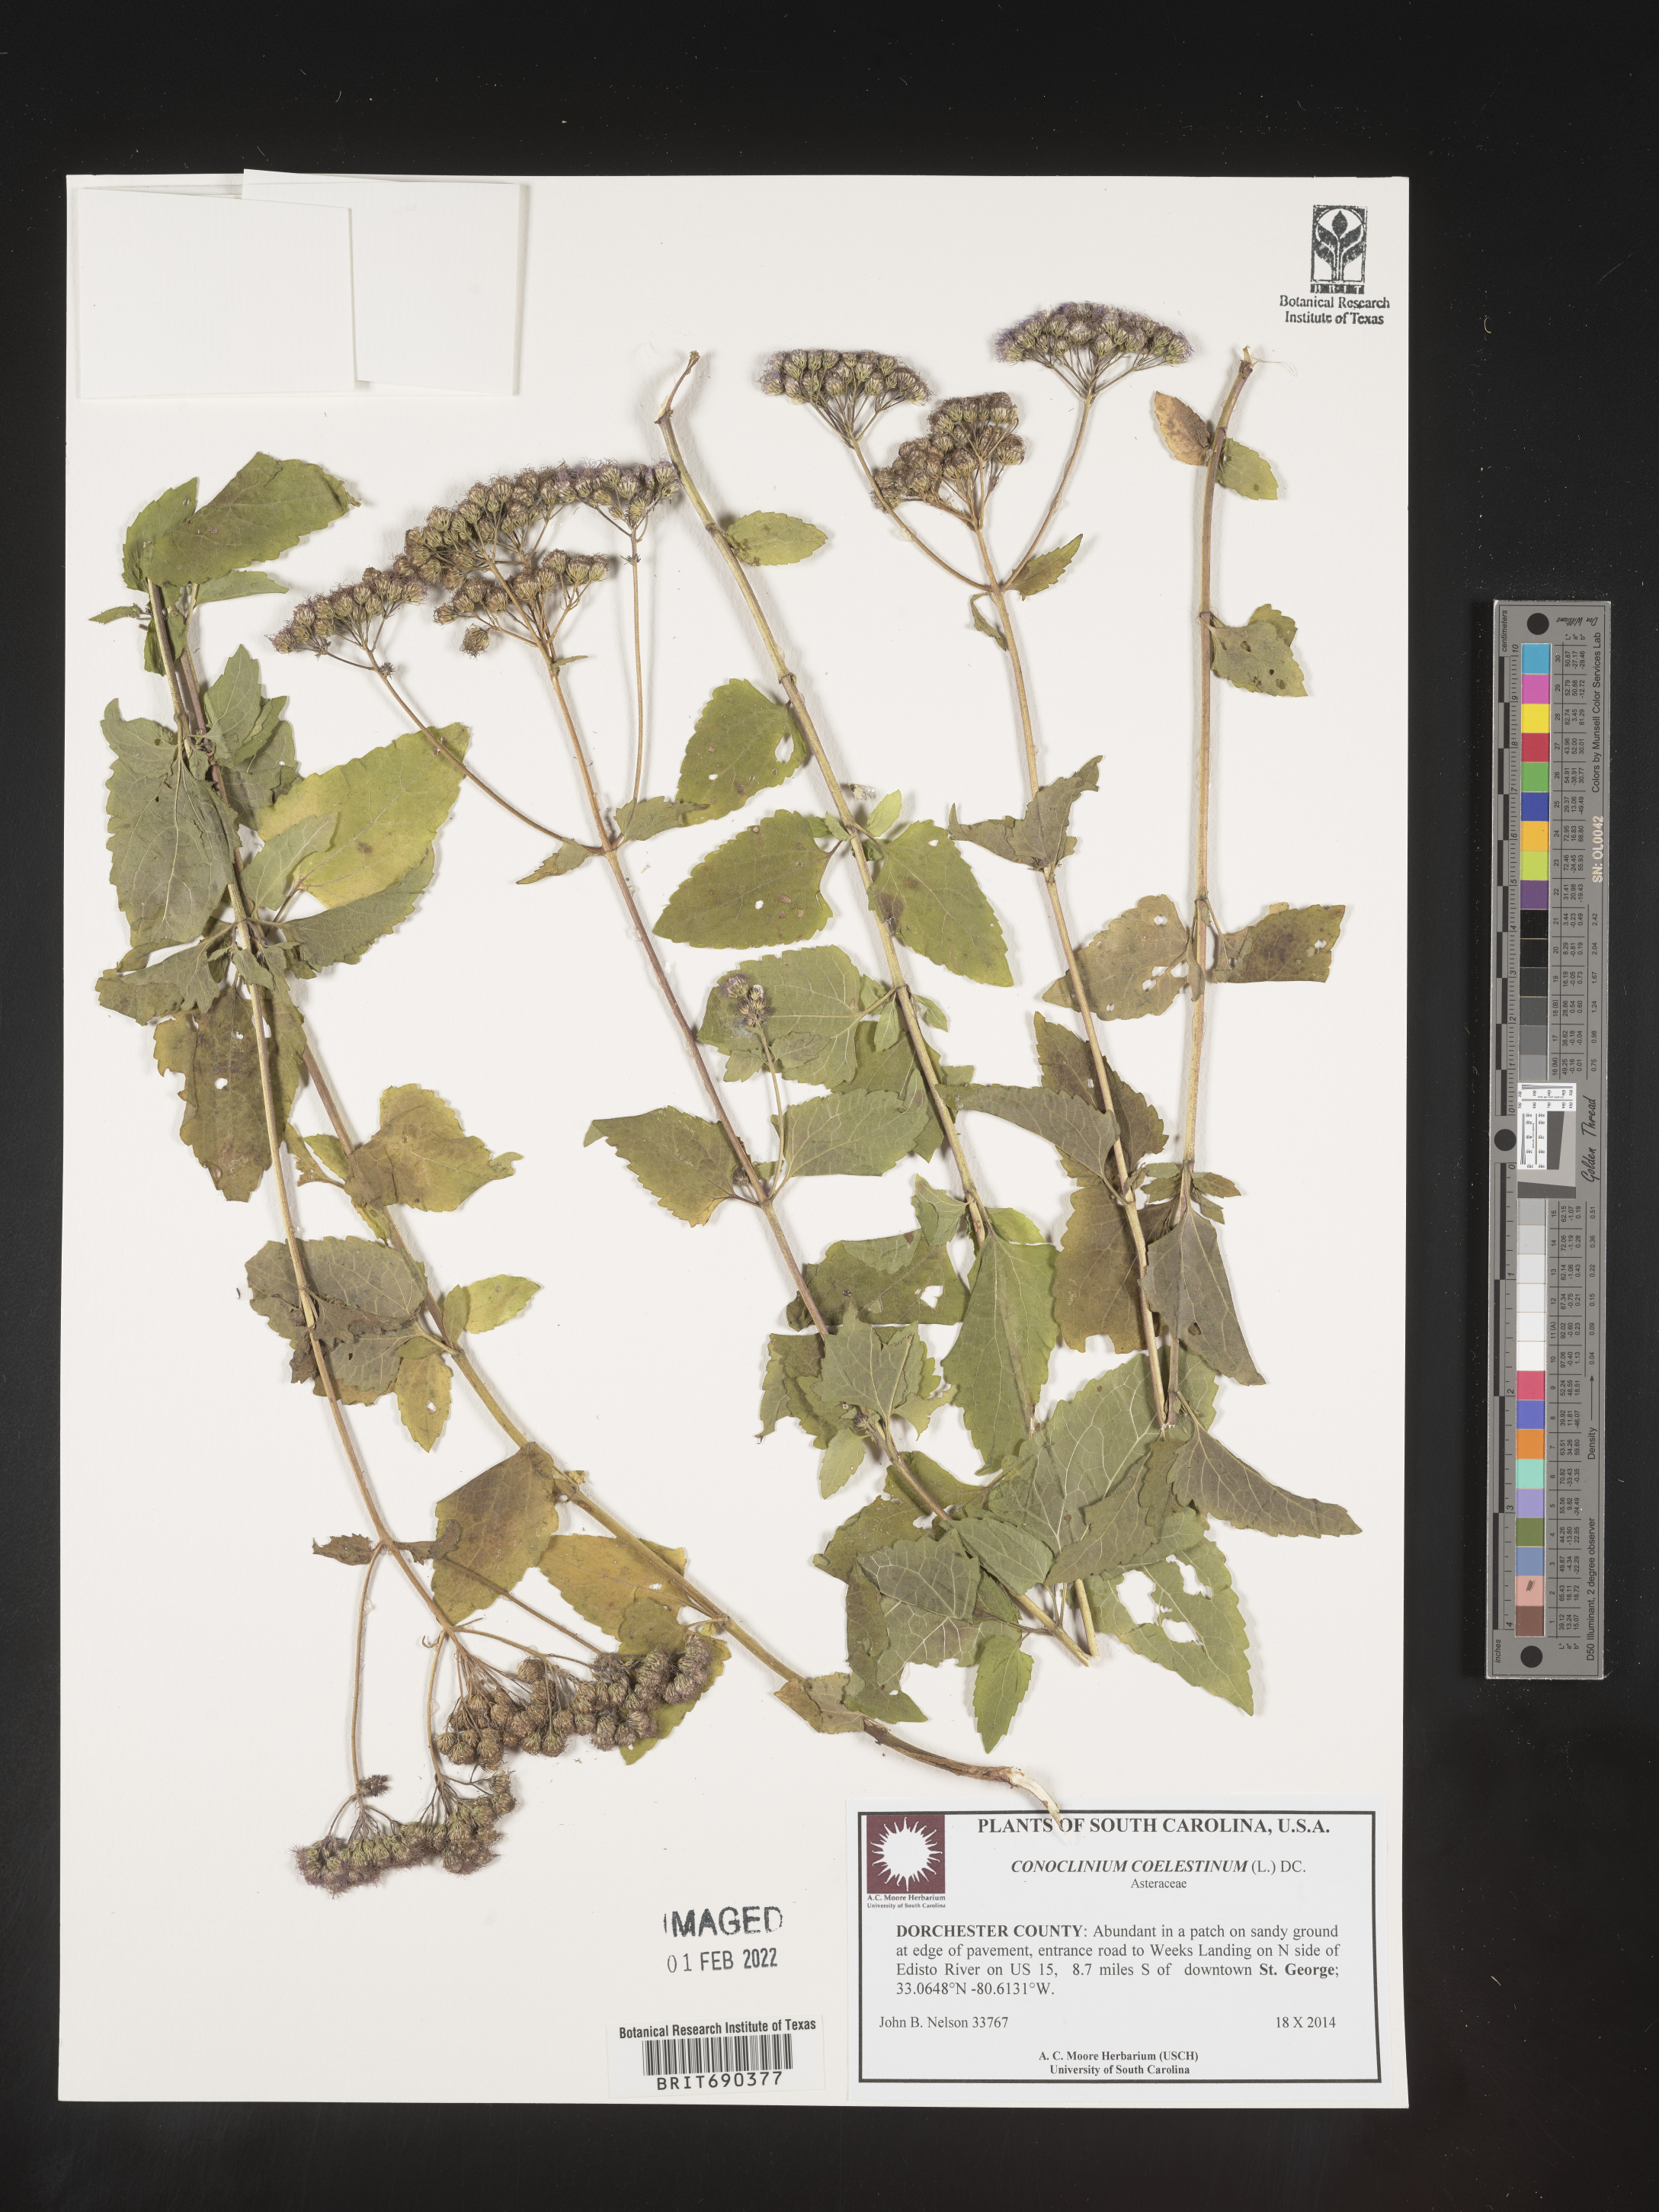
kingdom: Plantae
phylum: Tracheophyta
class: Magnoliopsida
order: Asterales
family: Asteraceae
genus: Conoclinium
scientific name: Conoclinium coelestinum
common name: Blue mistflower
